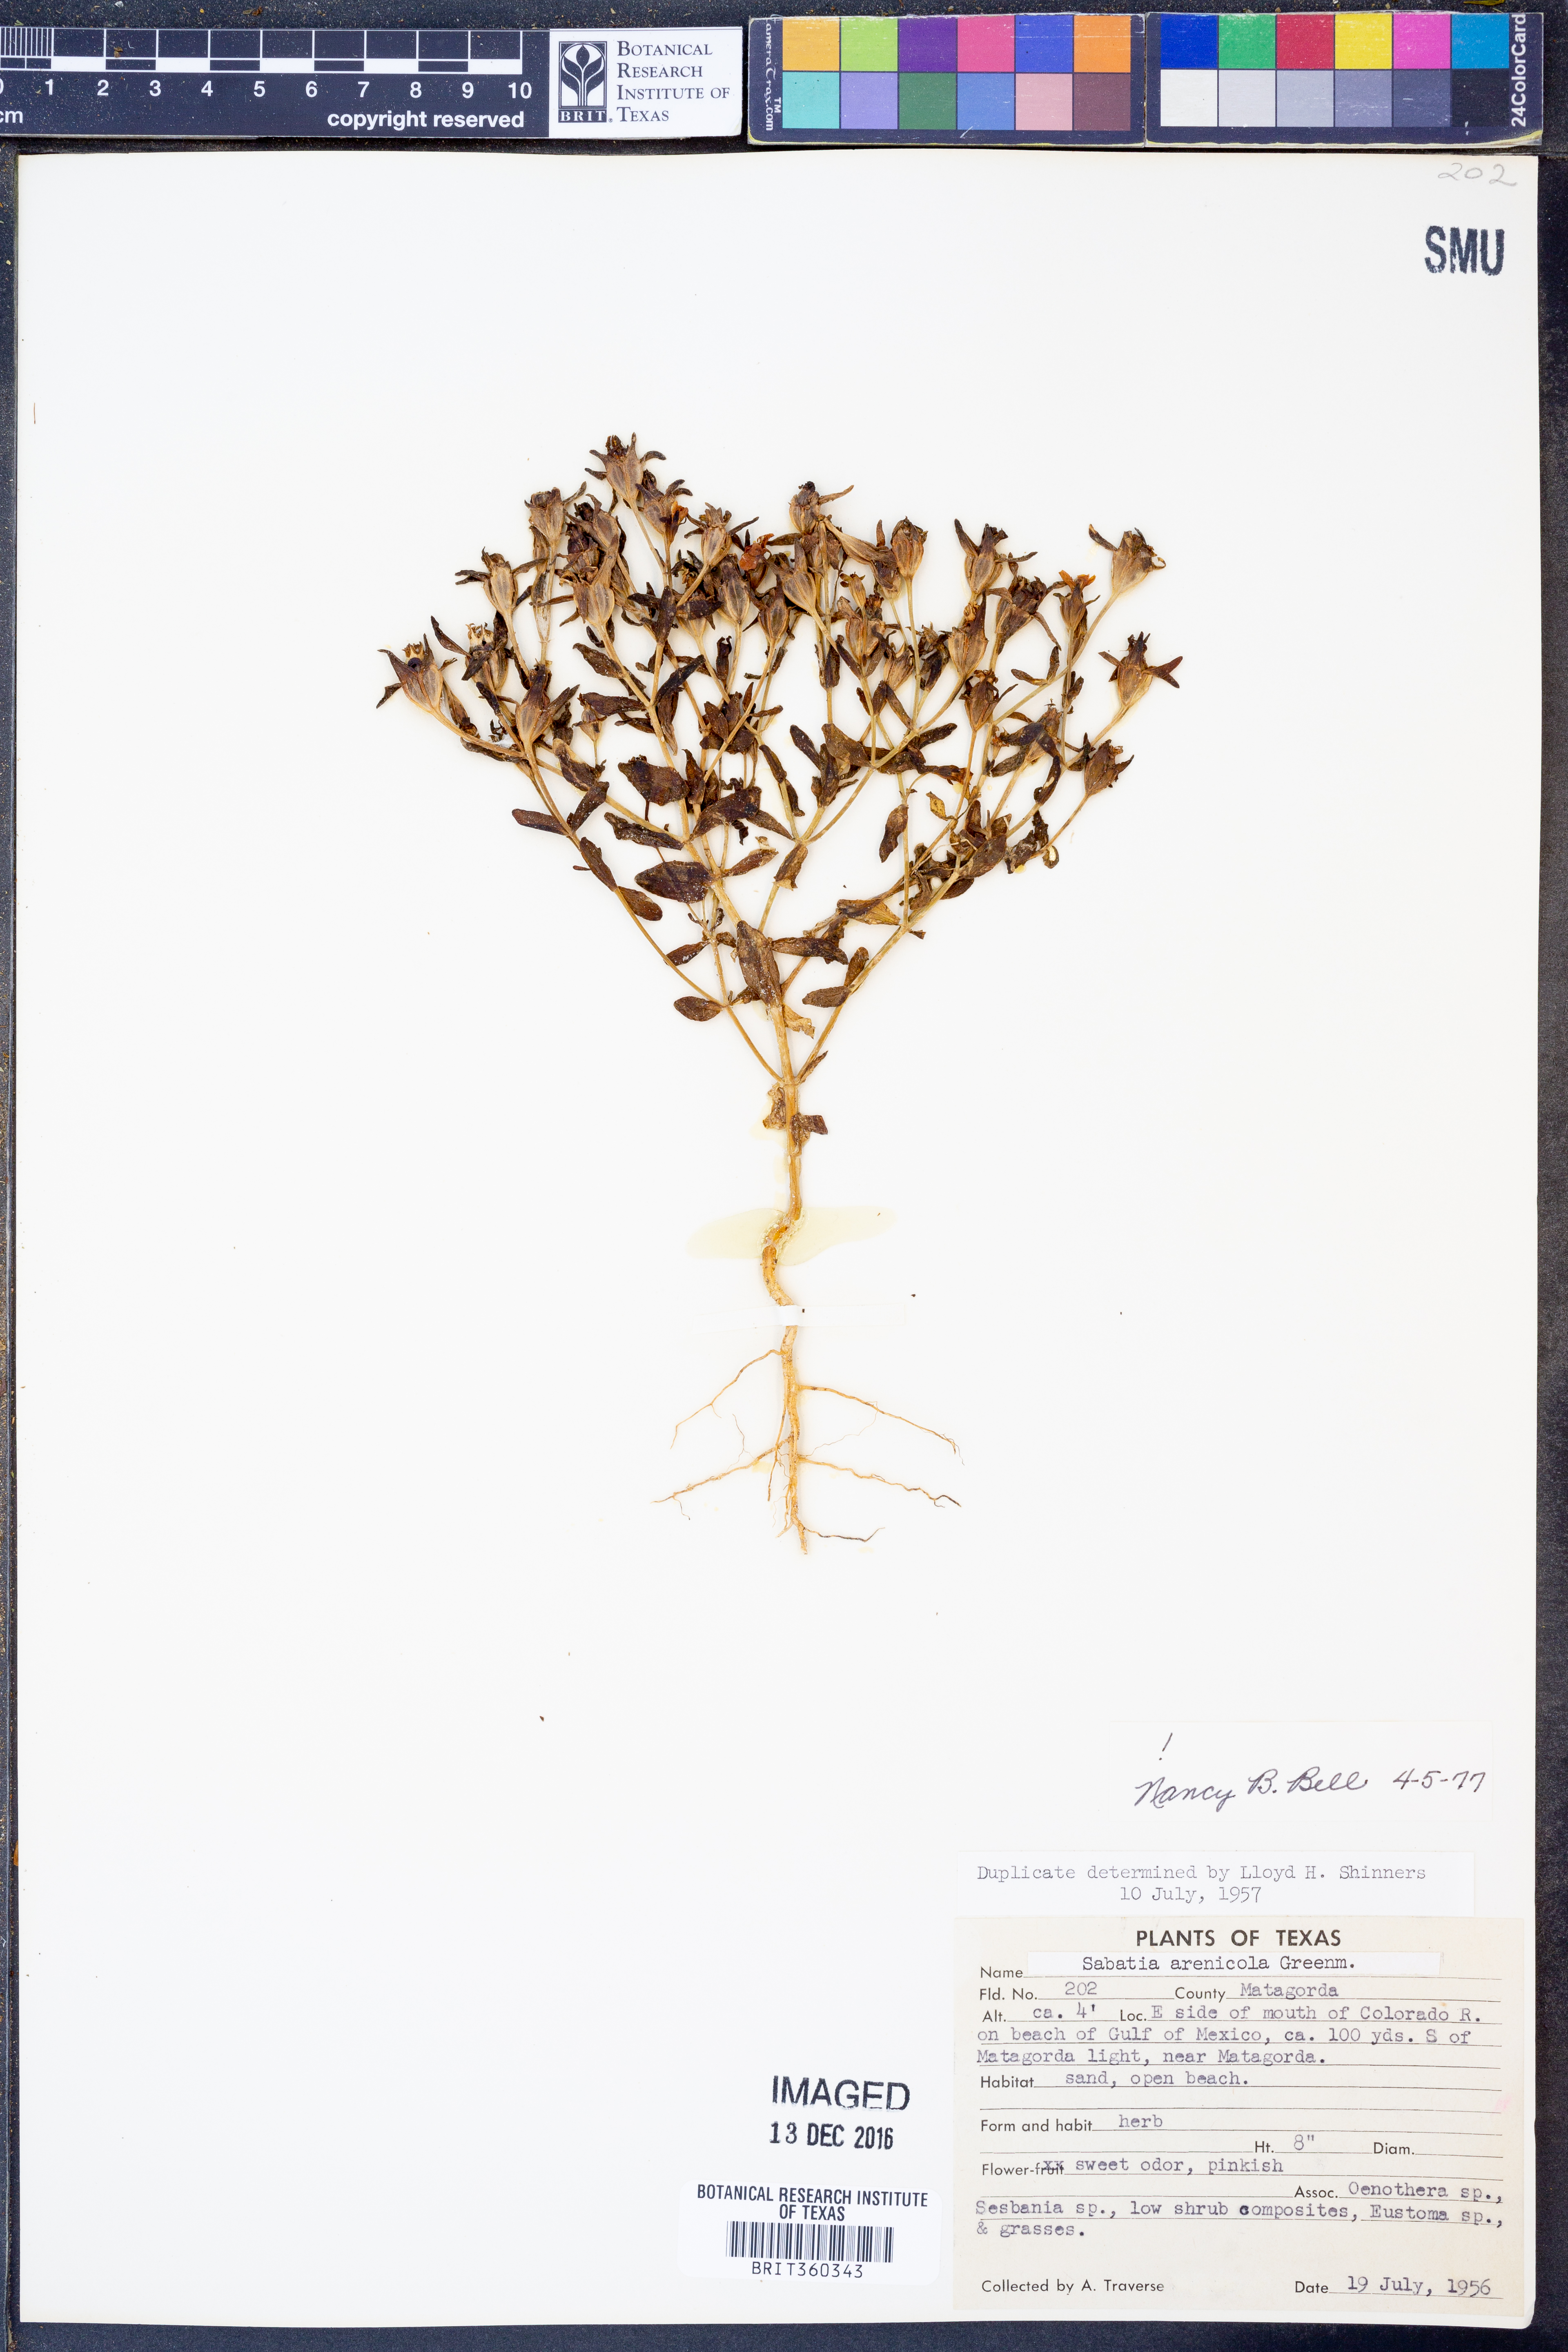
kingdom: Plantae
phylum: Tracheophyta
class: Magnoliopsida
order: Gentianales
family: Gentianaceae
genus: Sabatia
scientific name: Sabatia arenicola
